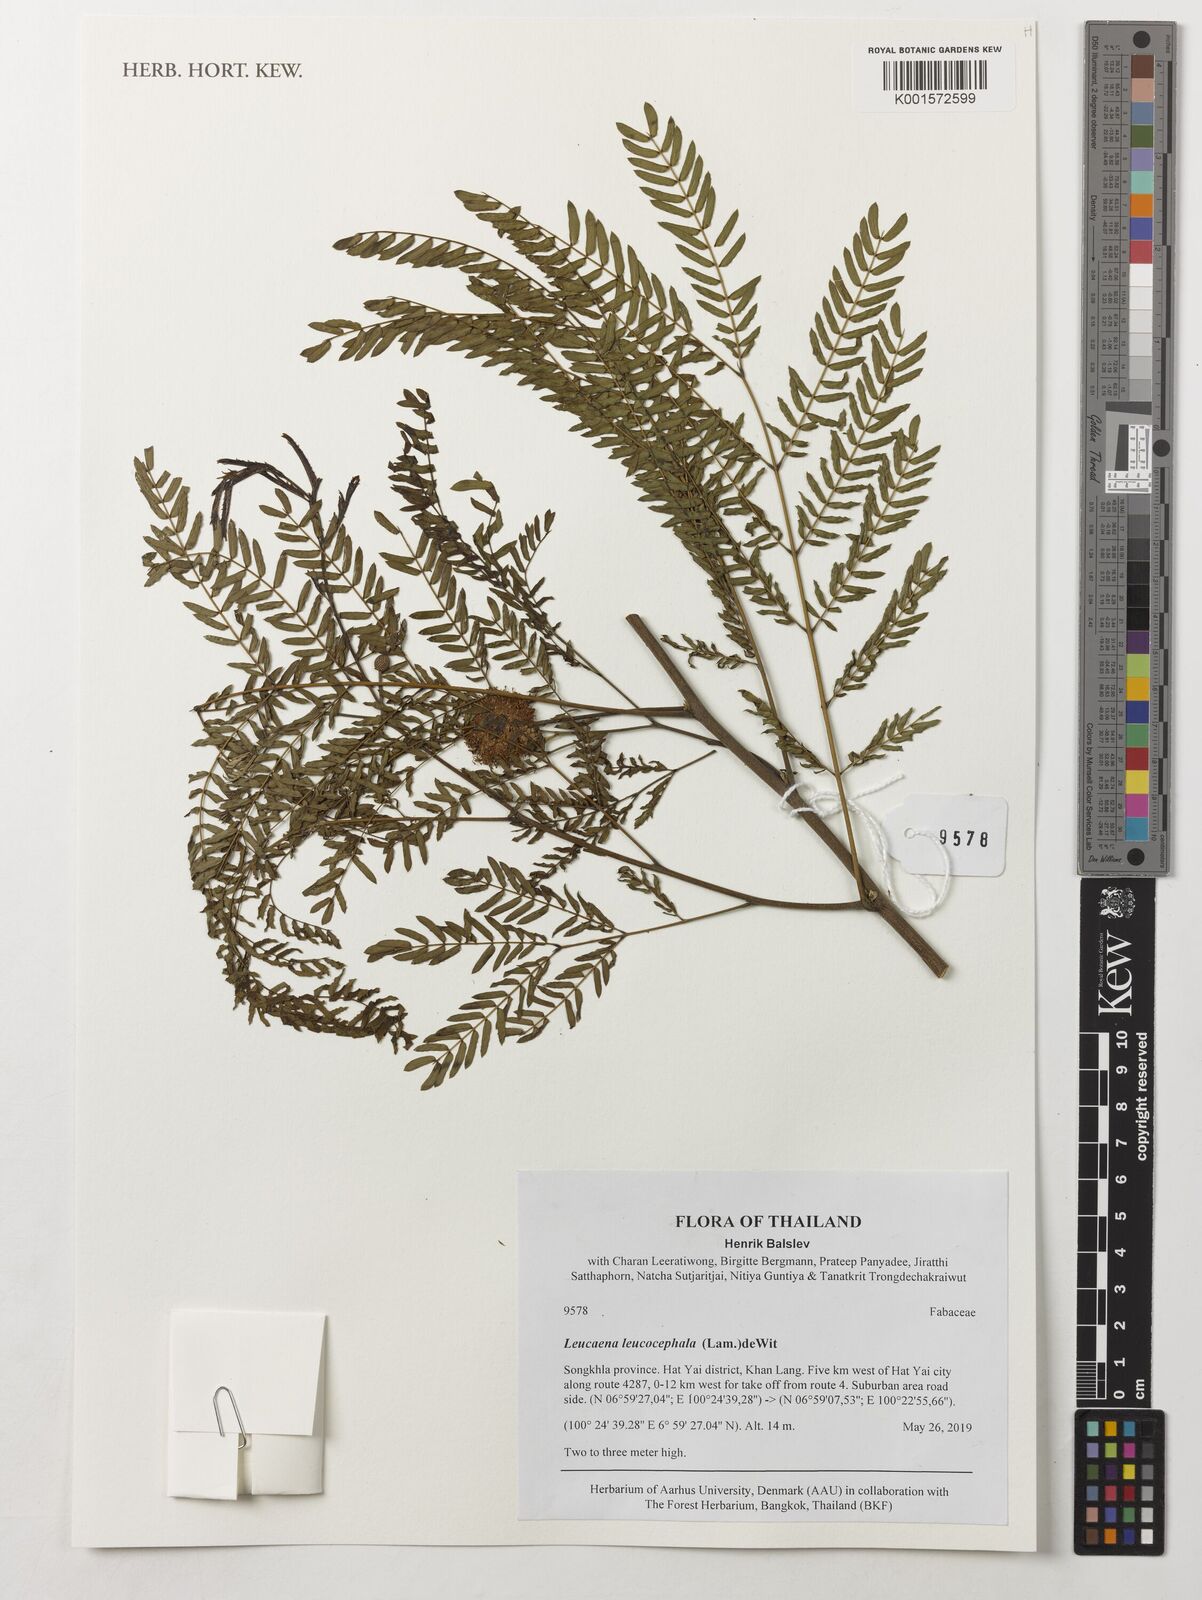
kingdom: Plantae
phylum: Tracheophyta
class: Magnoliopsida
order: Fabales
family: Fabaceae
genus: Leucaena
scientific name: Leucaena leucocephala
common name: White leadtree
